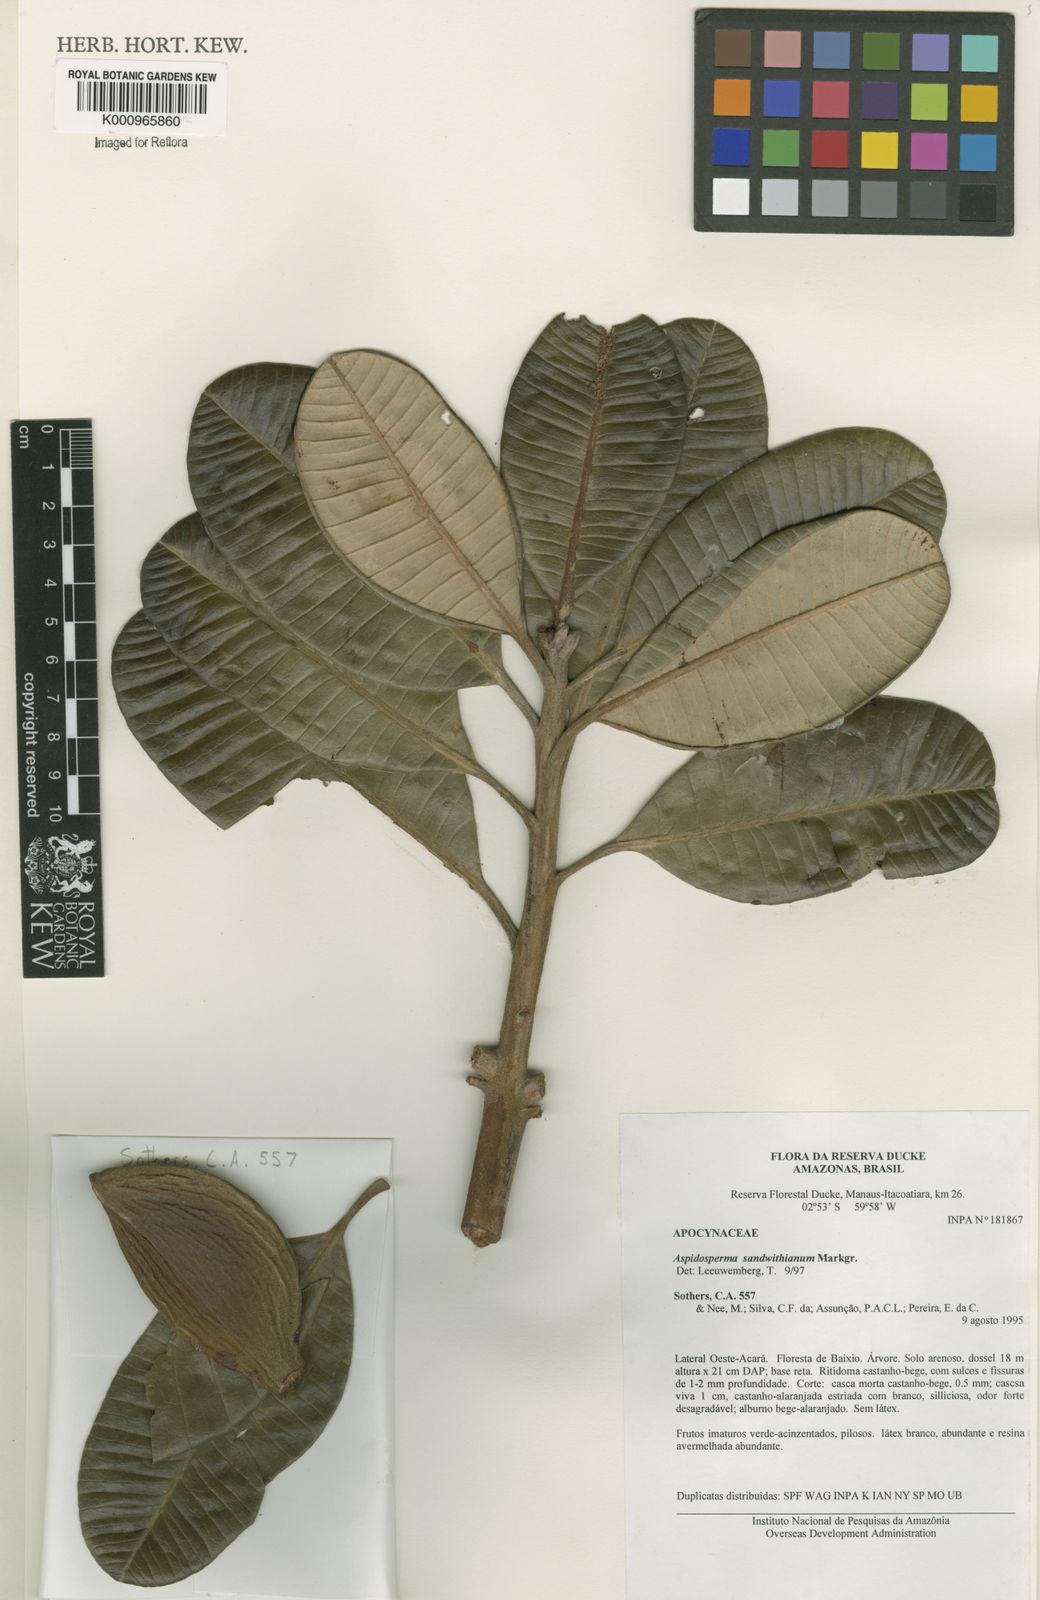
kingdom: Plantae
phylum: Tracheophyta
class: Magnoliopsida
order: Gentianales
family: Apocynaceae
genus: Aspidosperma
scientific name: Aspidosperma sandwithianum
